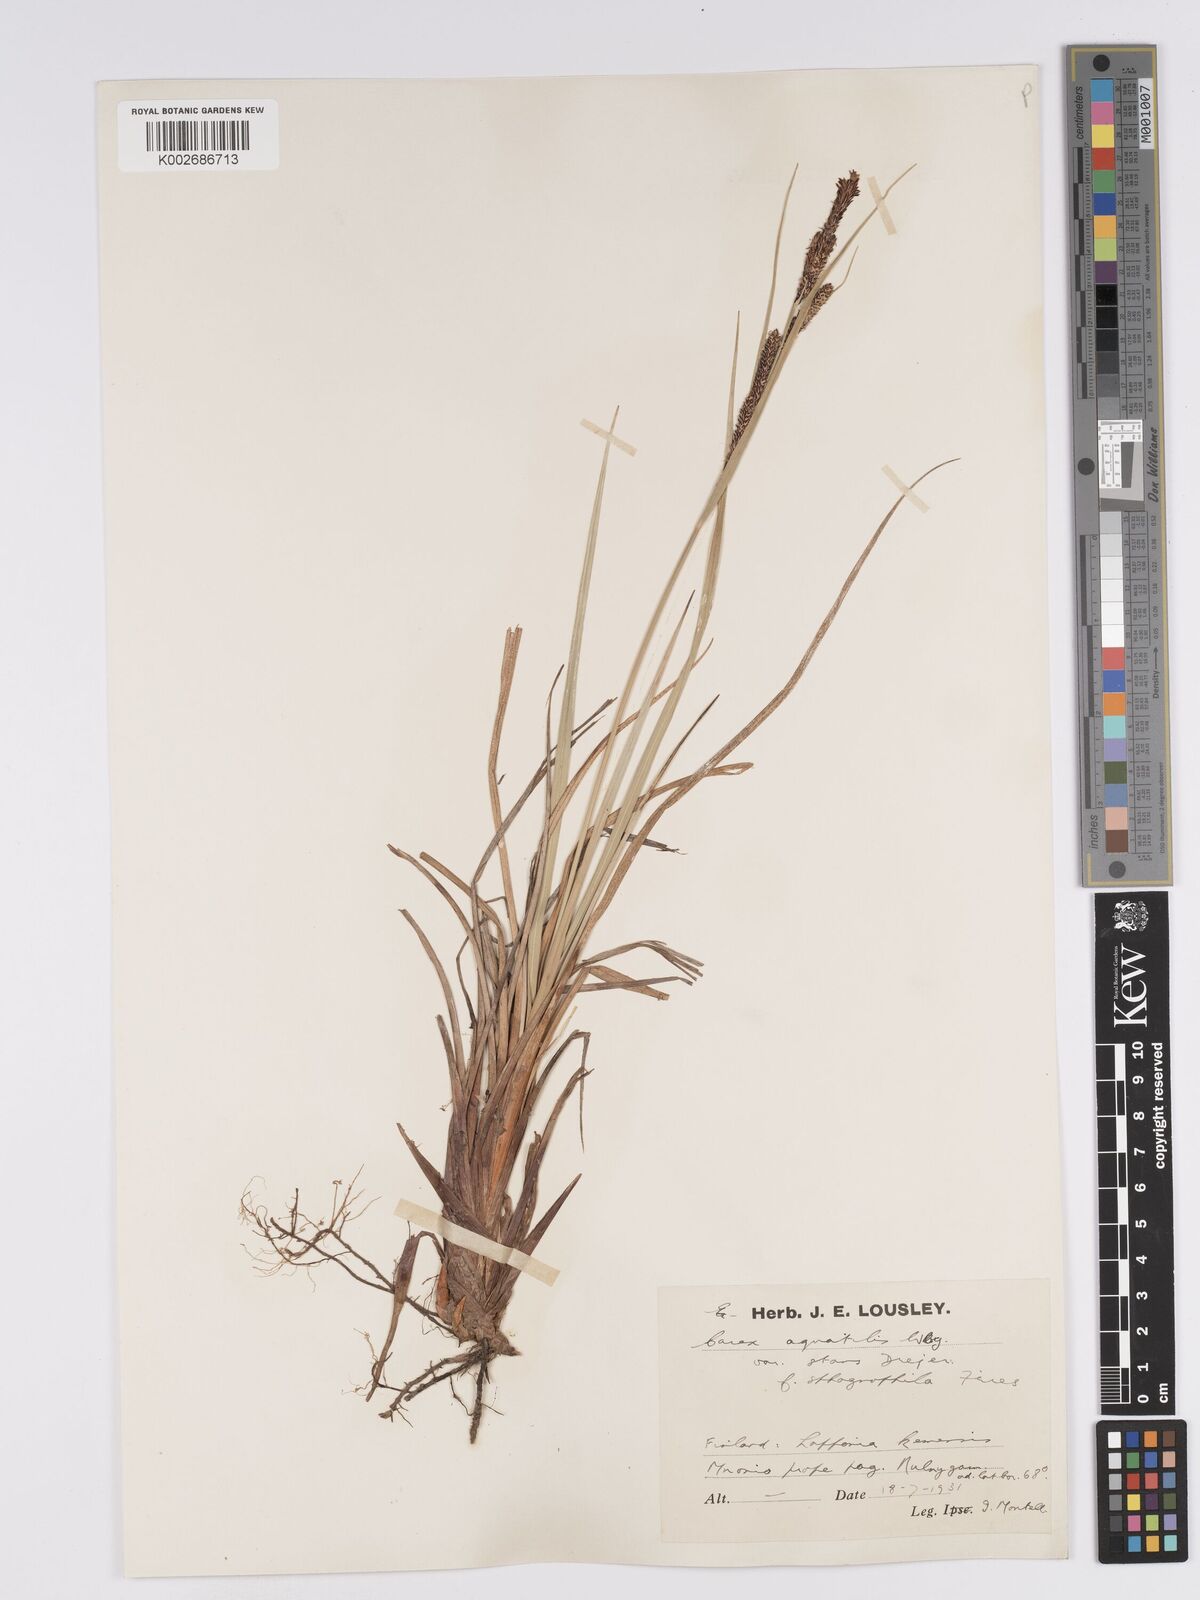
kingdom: Plantae
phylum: Tracheophyta
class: Liliopsida
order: Poales
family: Cyperaceae
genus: Carex
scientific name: Carex aquatilis
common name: Water sedge
